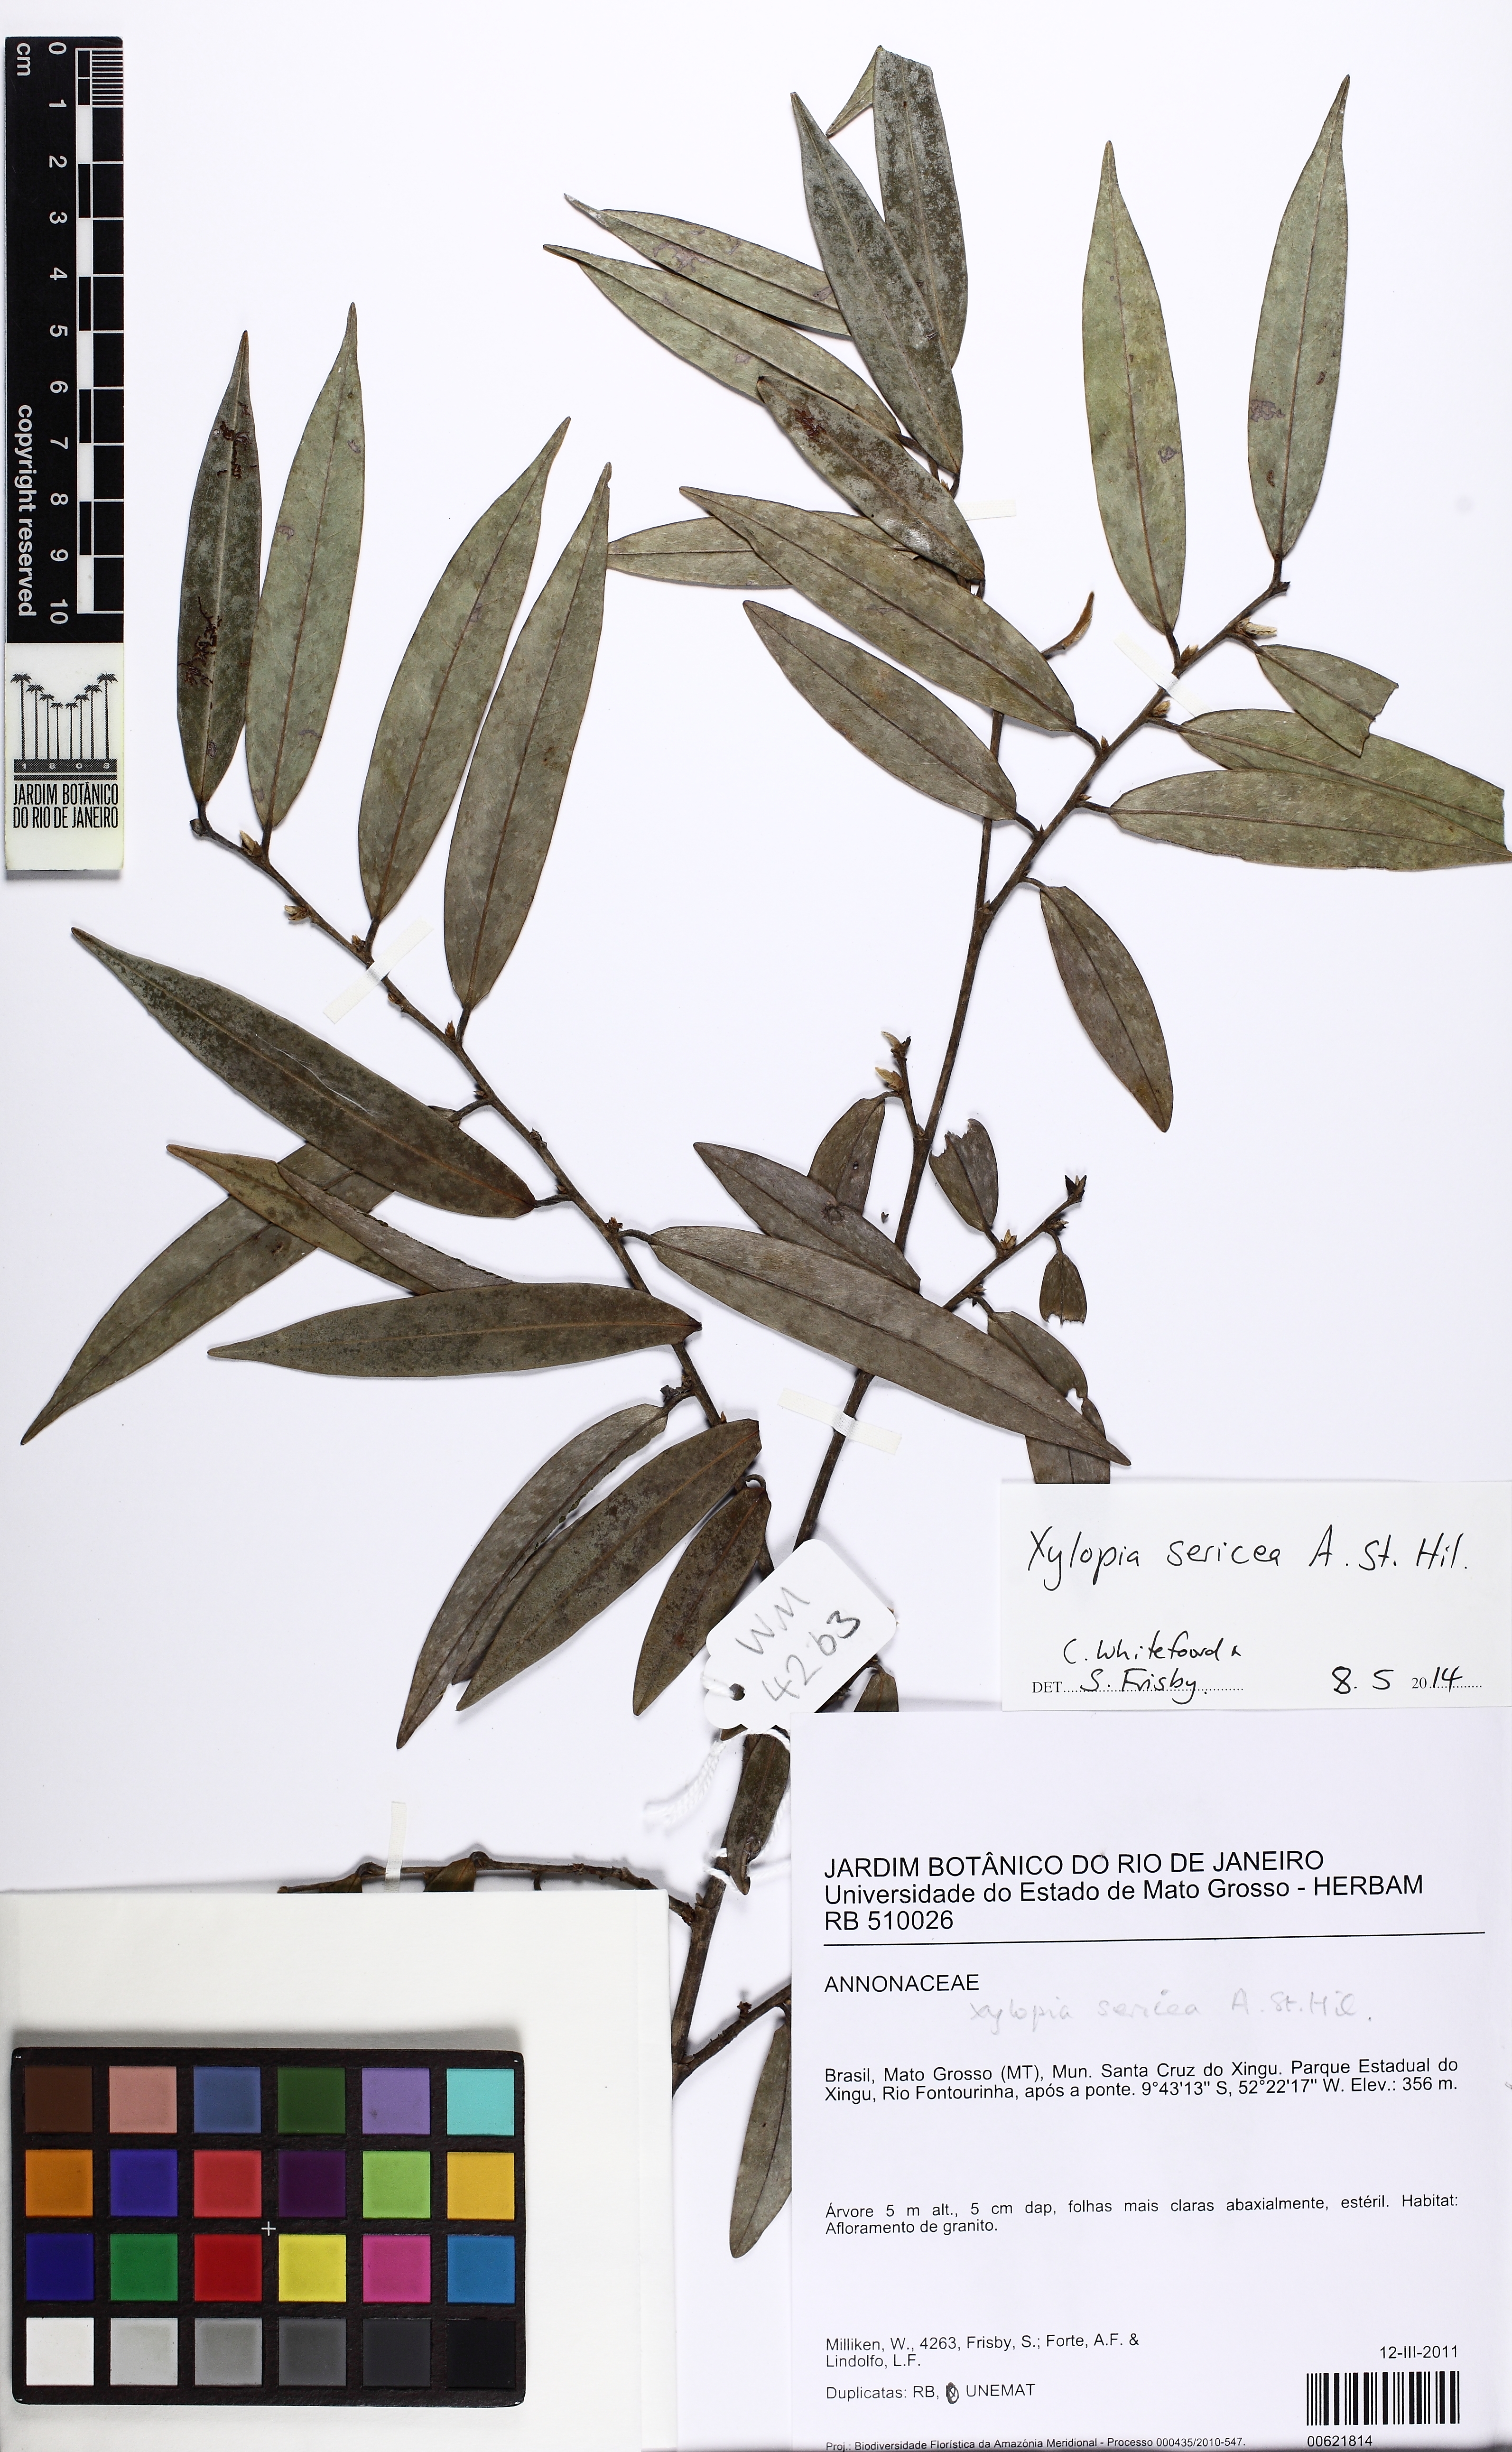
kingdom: Plantae
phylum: Tracheophyta
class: Magnoliopsida
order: Magnoliales
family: Annonaceae
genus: Xylopia
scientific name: Xylopia sericea
